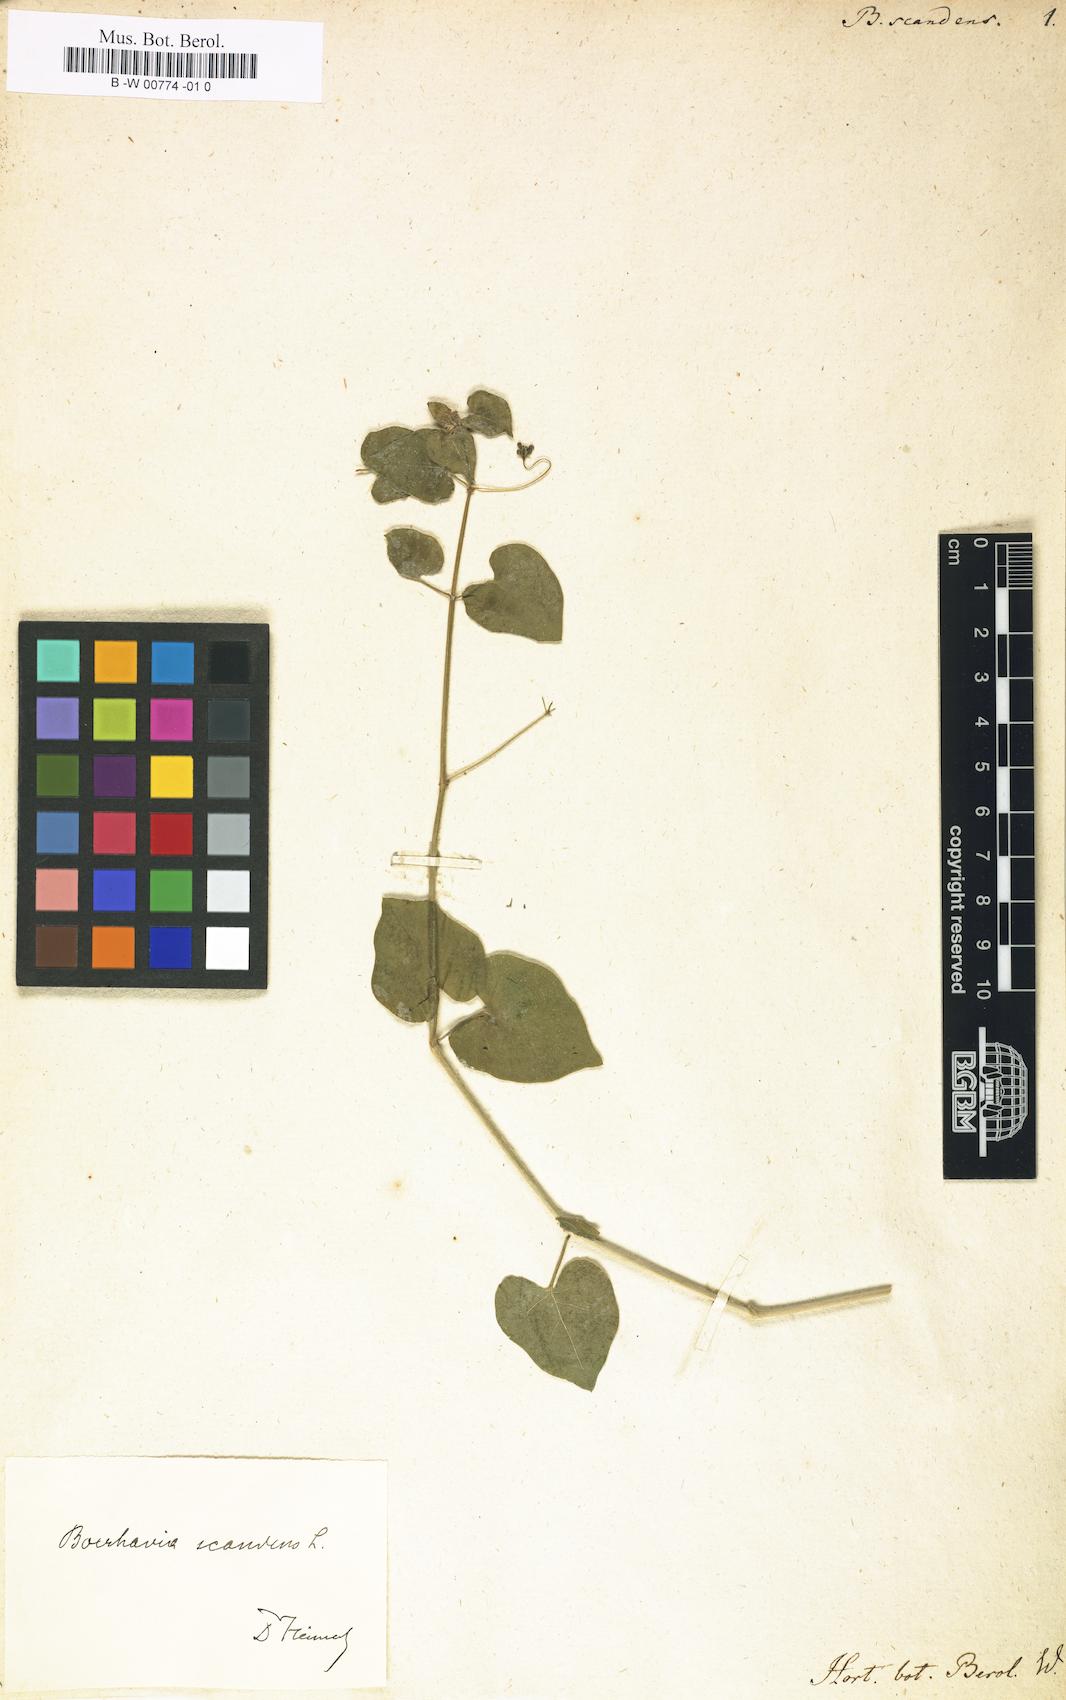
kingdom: Plantae
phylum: Tracheophyta
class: Magnoliopsida
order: Caryophyllales
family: Nyctaginaceae
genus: Boerhavia
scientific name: Boerhavia scandens
